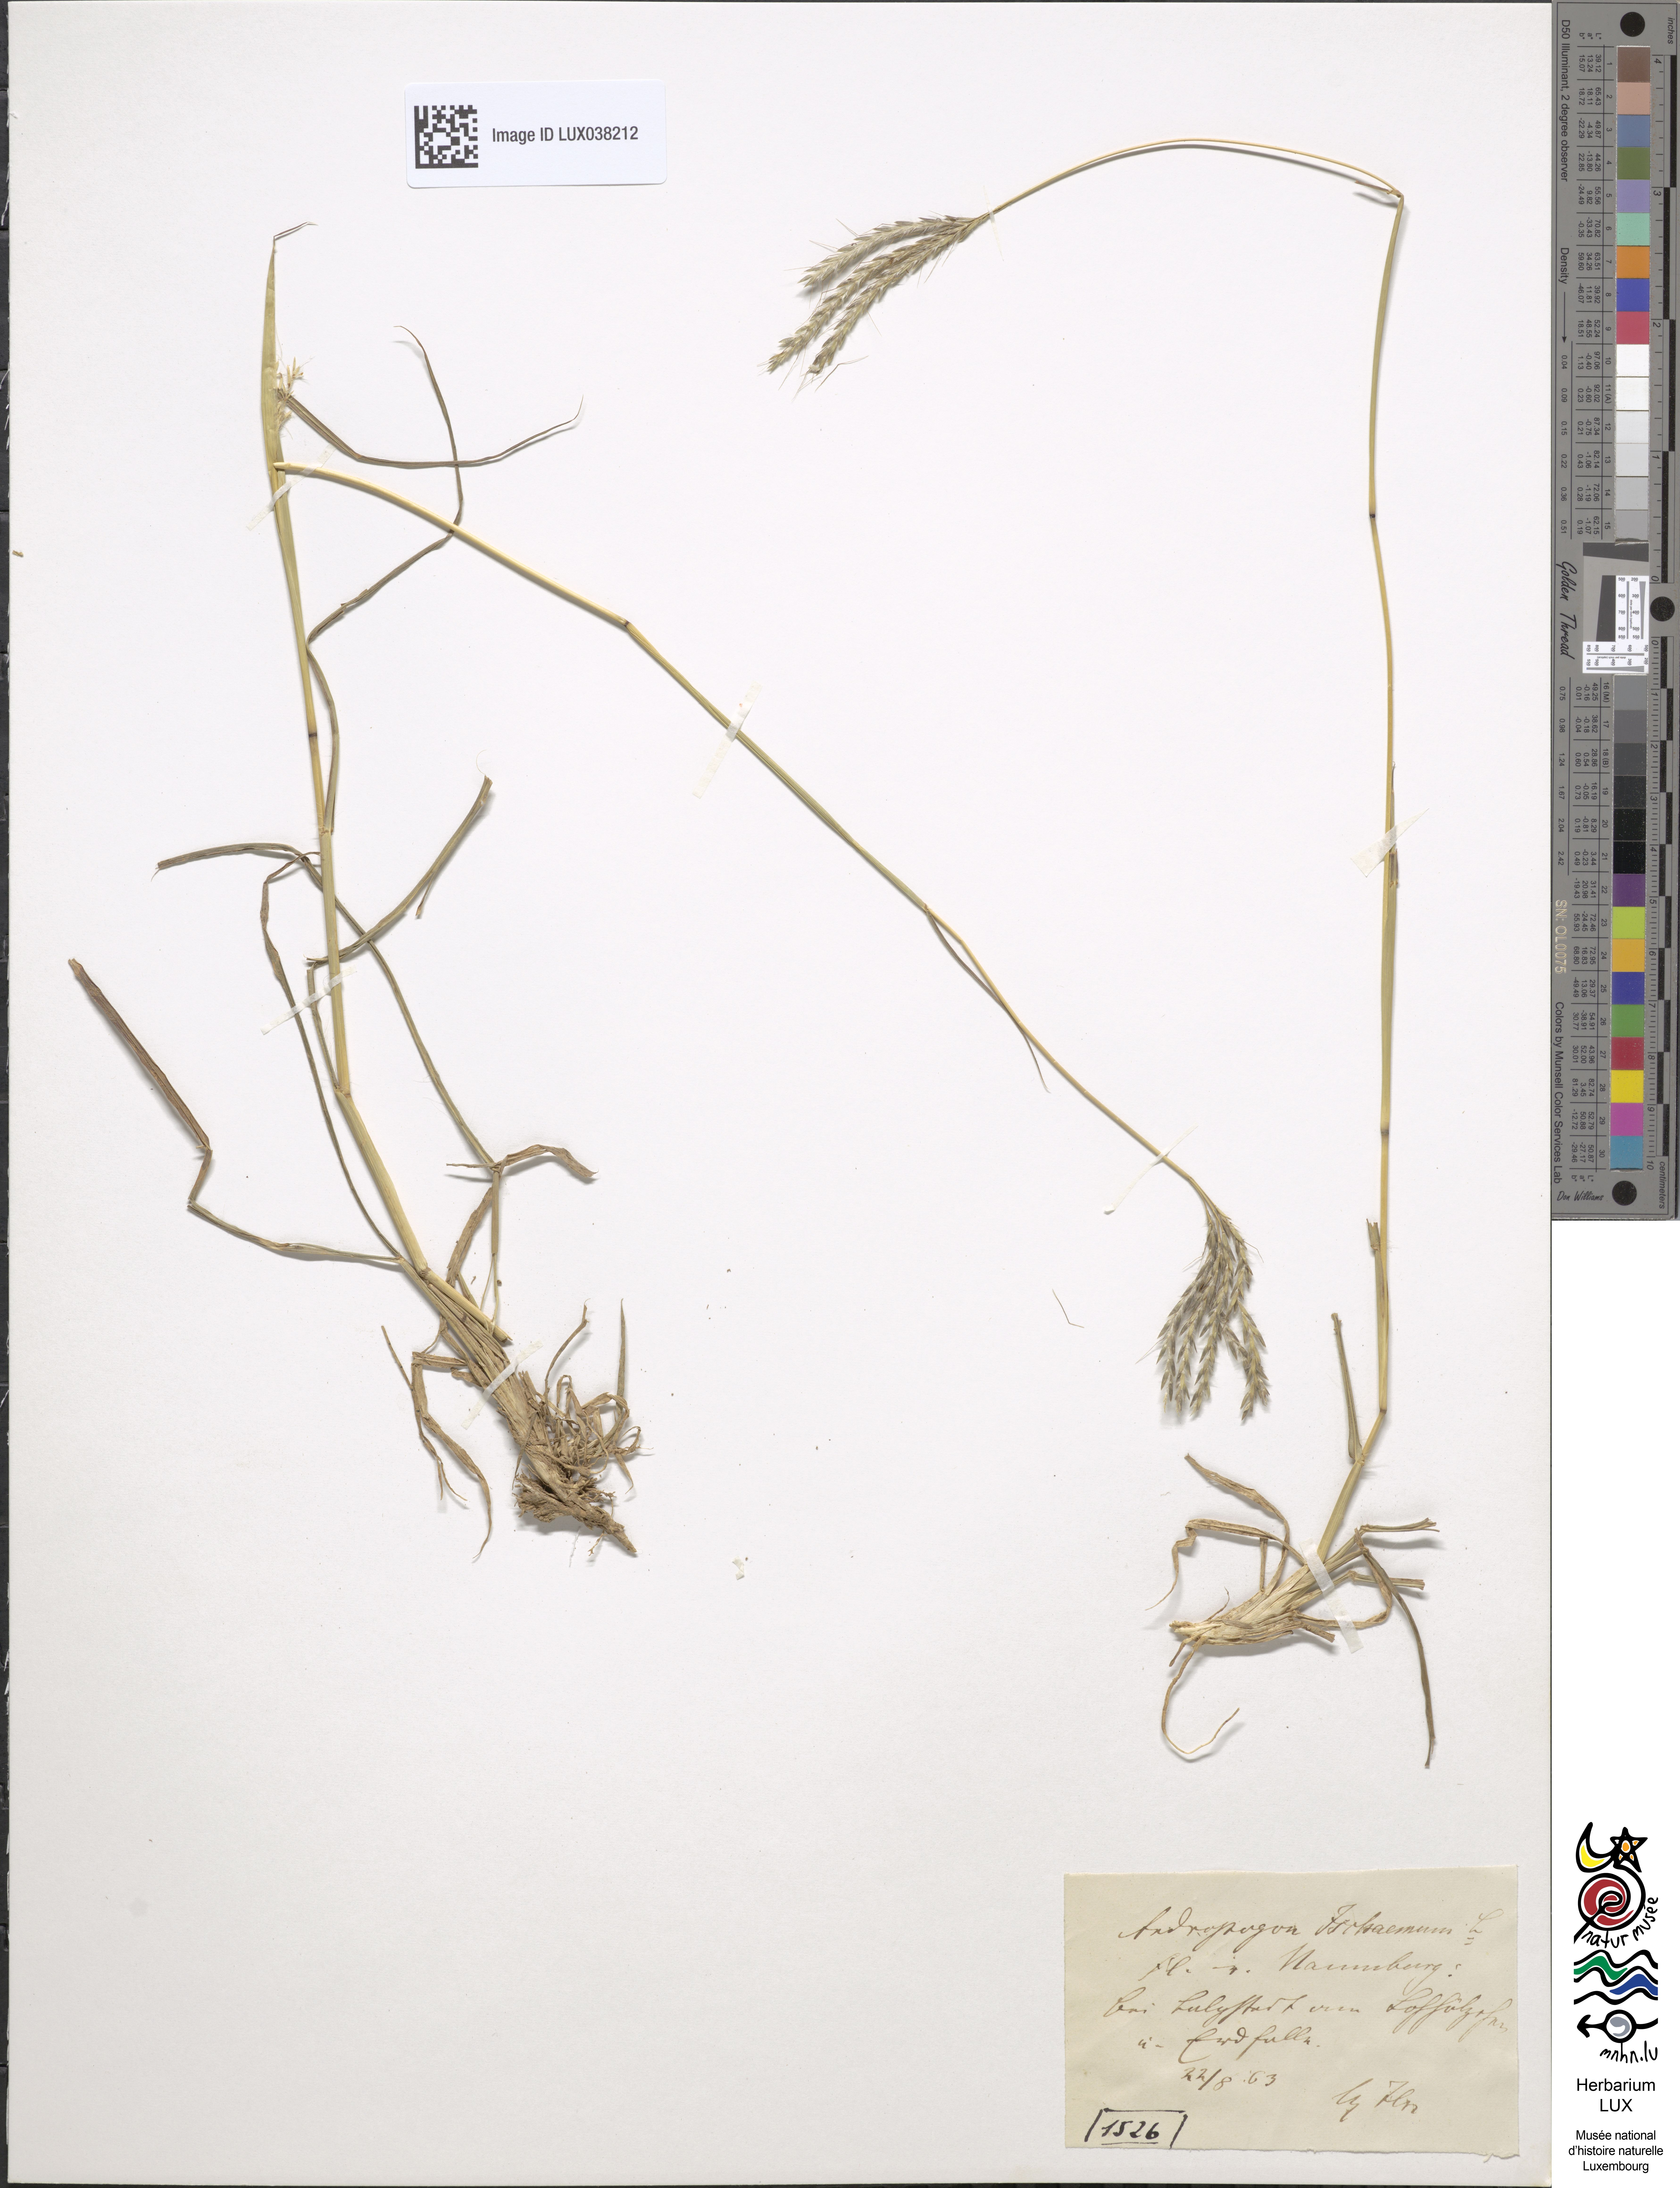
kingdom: Plantae
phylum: Tracheophyta
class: Liliopsida
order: Poales
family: Poaceae
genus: Bothriochloa
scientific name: Bothriochloa ischaemum
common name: Yellow bluestem
